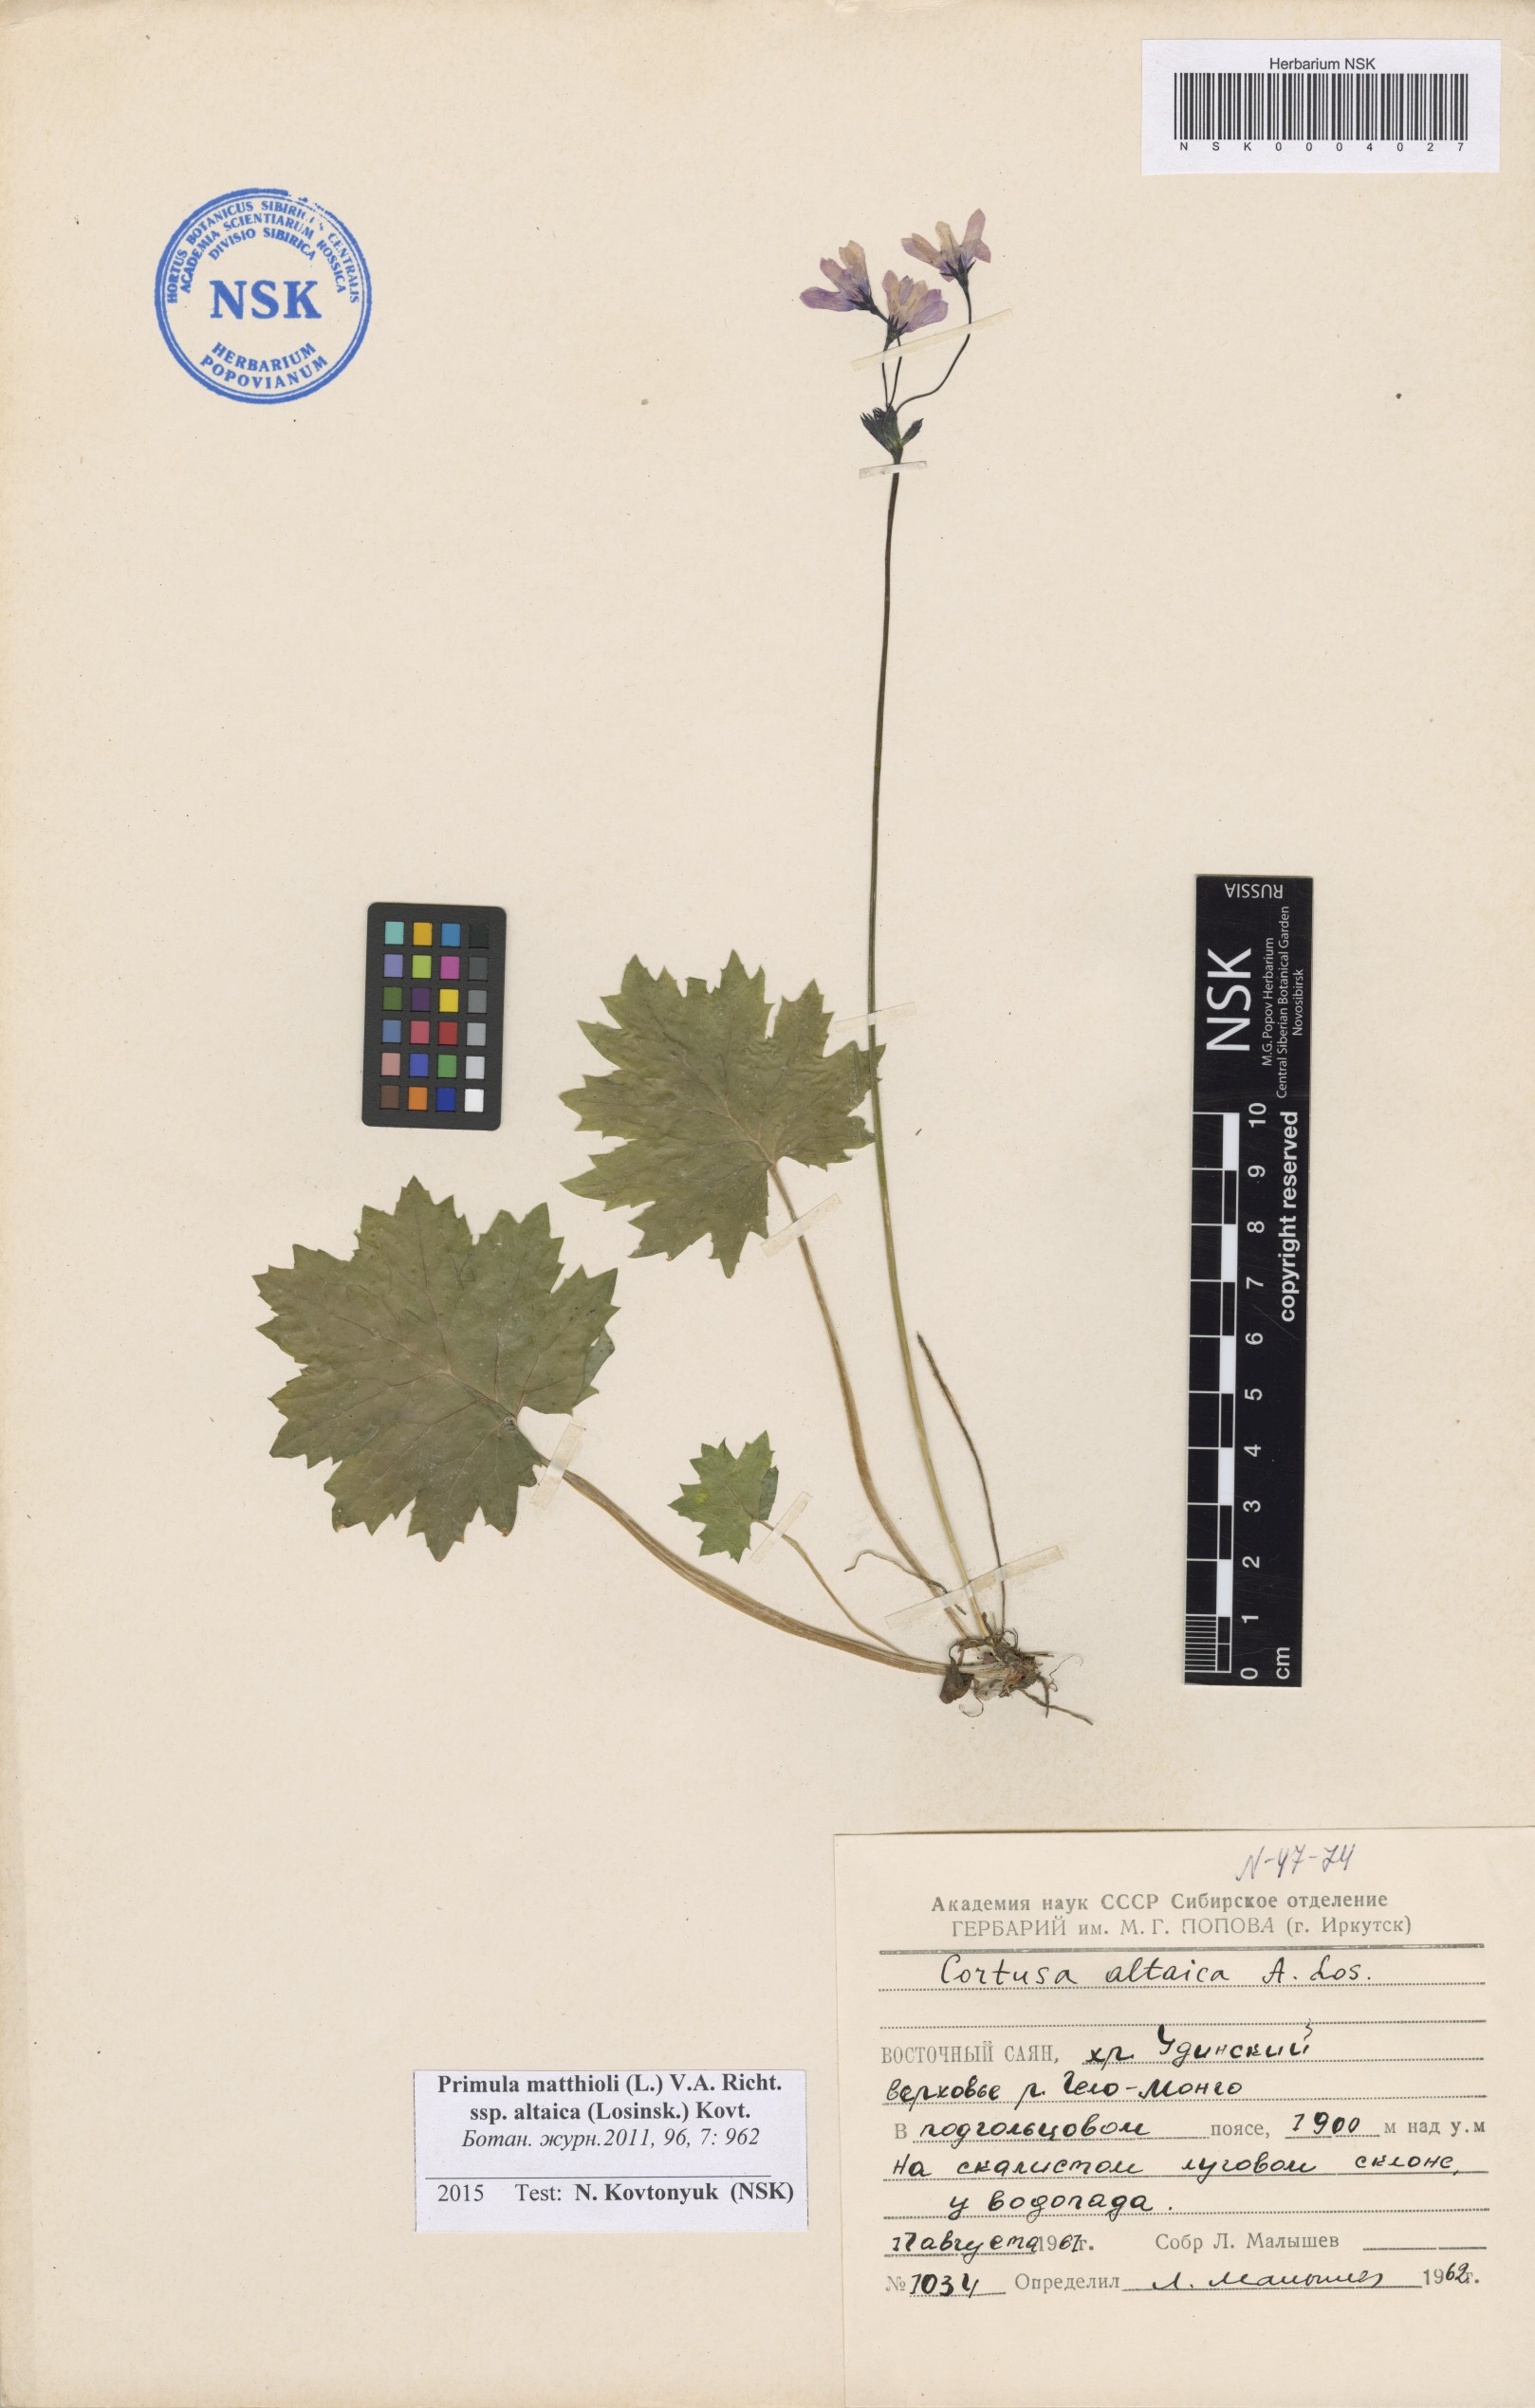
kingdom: Plantae
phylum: Tracheophyta
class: Magnoliopsida
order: Ericales
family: Primulaceae
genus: Primula
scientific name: Primula matthioli
